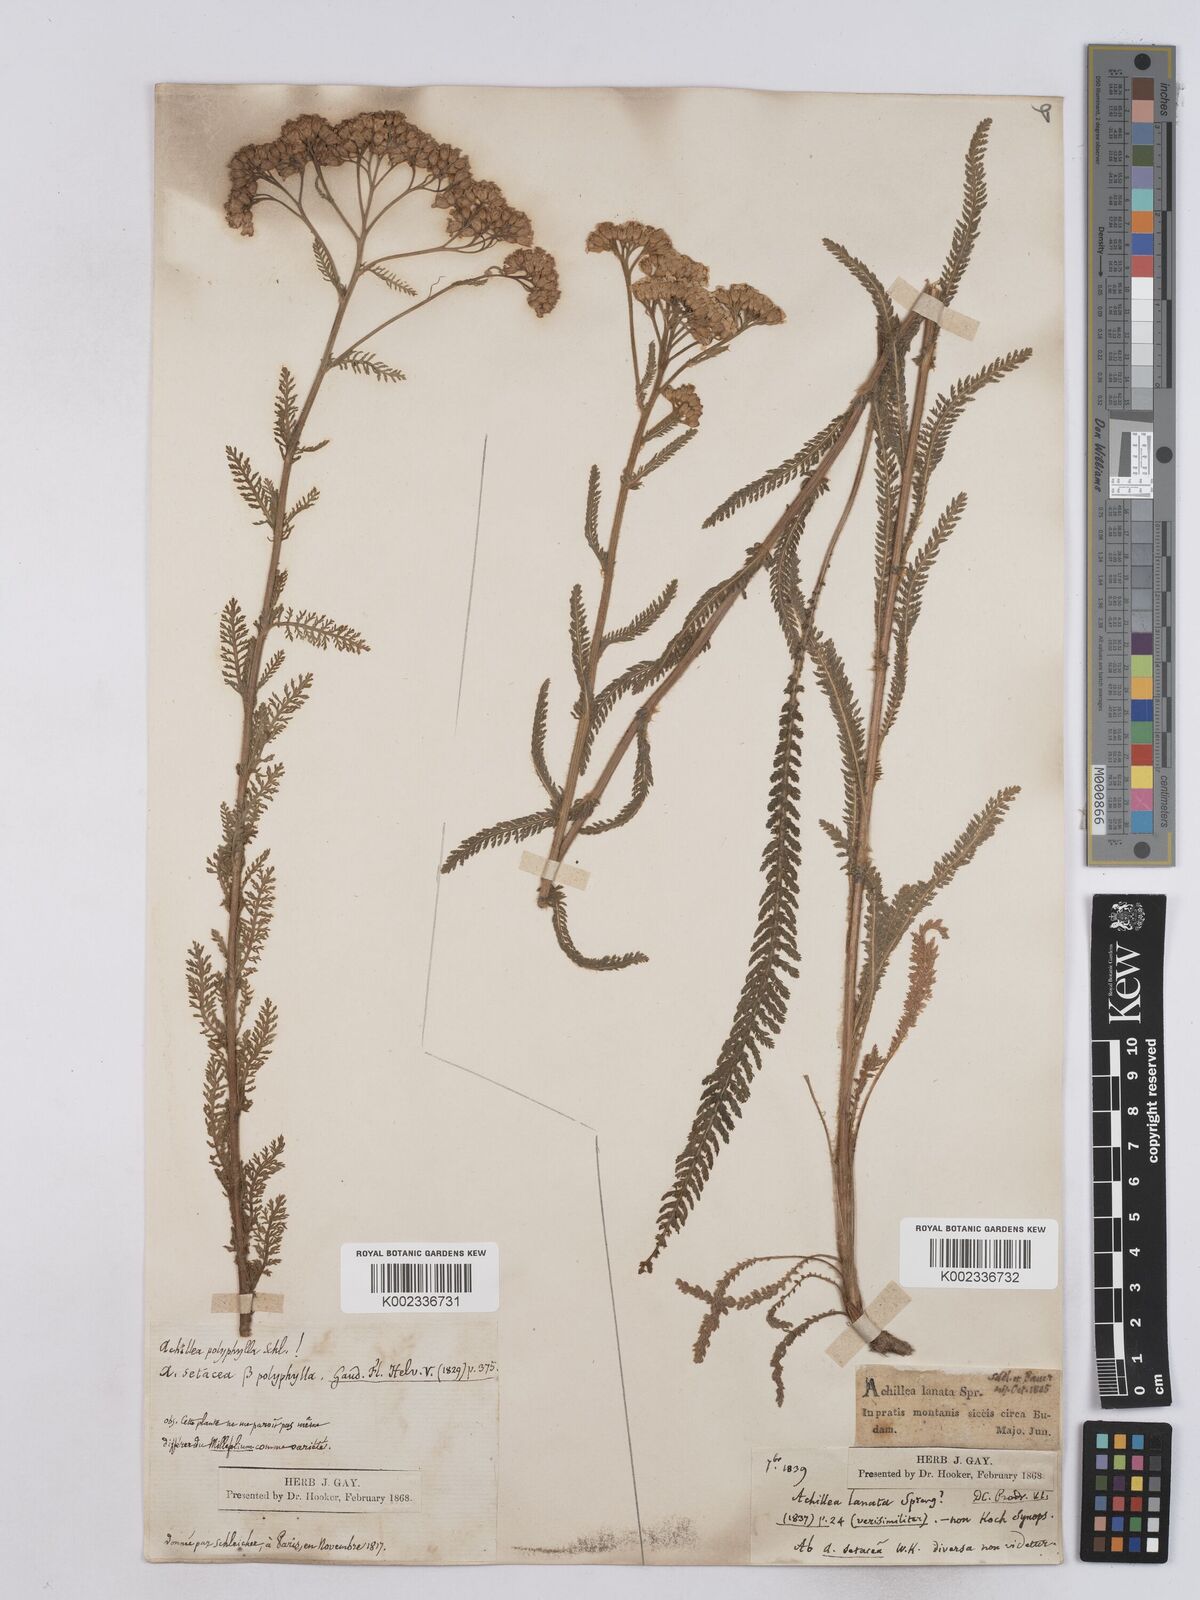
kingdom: Plantae
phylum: Tracheophyta
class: Magnoliopsida
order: Asterales
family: Asteraceae
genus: Achillea
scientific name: Achillea collina
